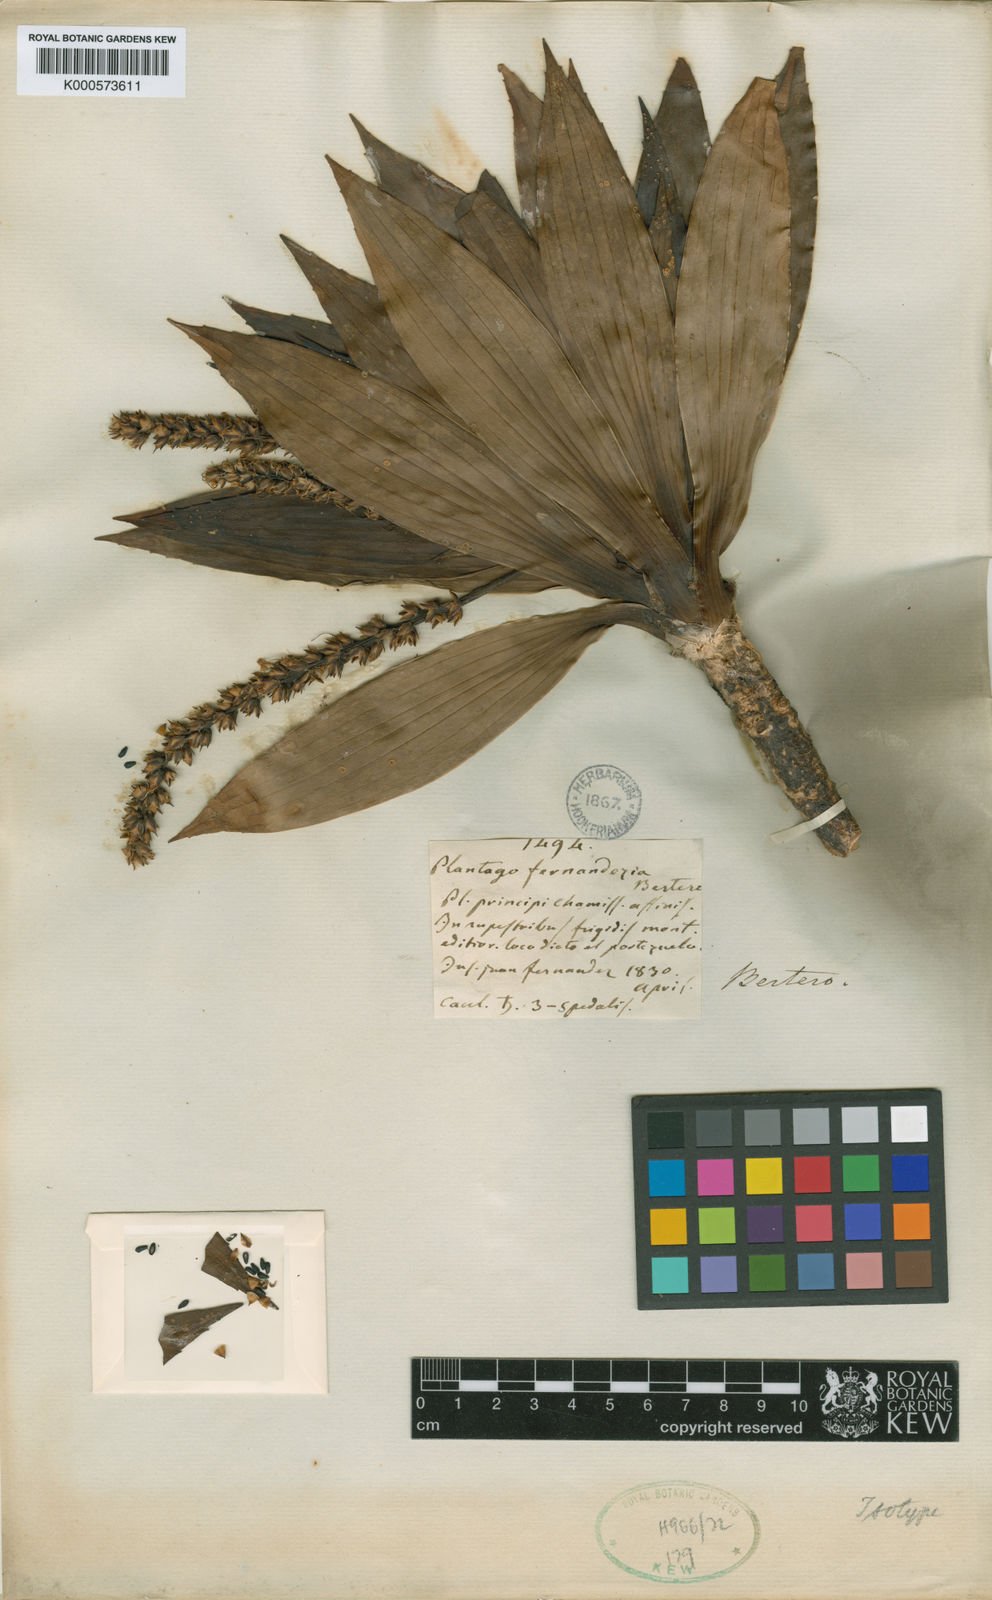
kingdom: Plantae
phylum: Tracheophyta
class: Magnoliopsida
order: Lamiales
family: Plantaginaceae
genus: Plantago
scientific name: Plantago
